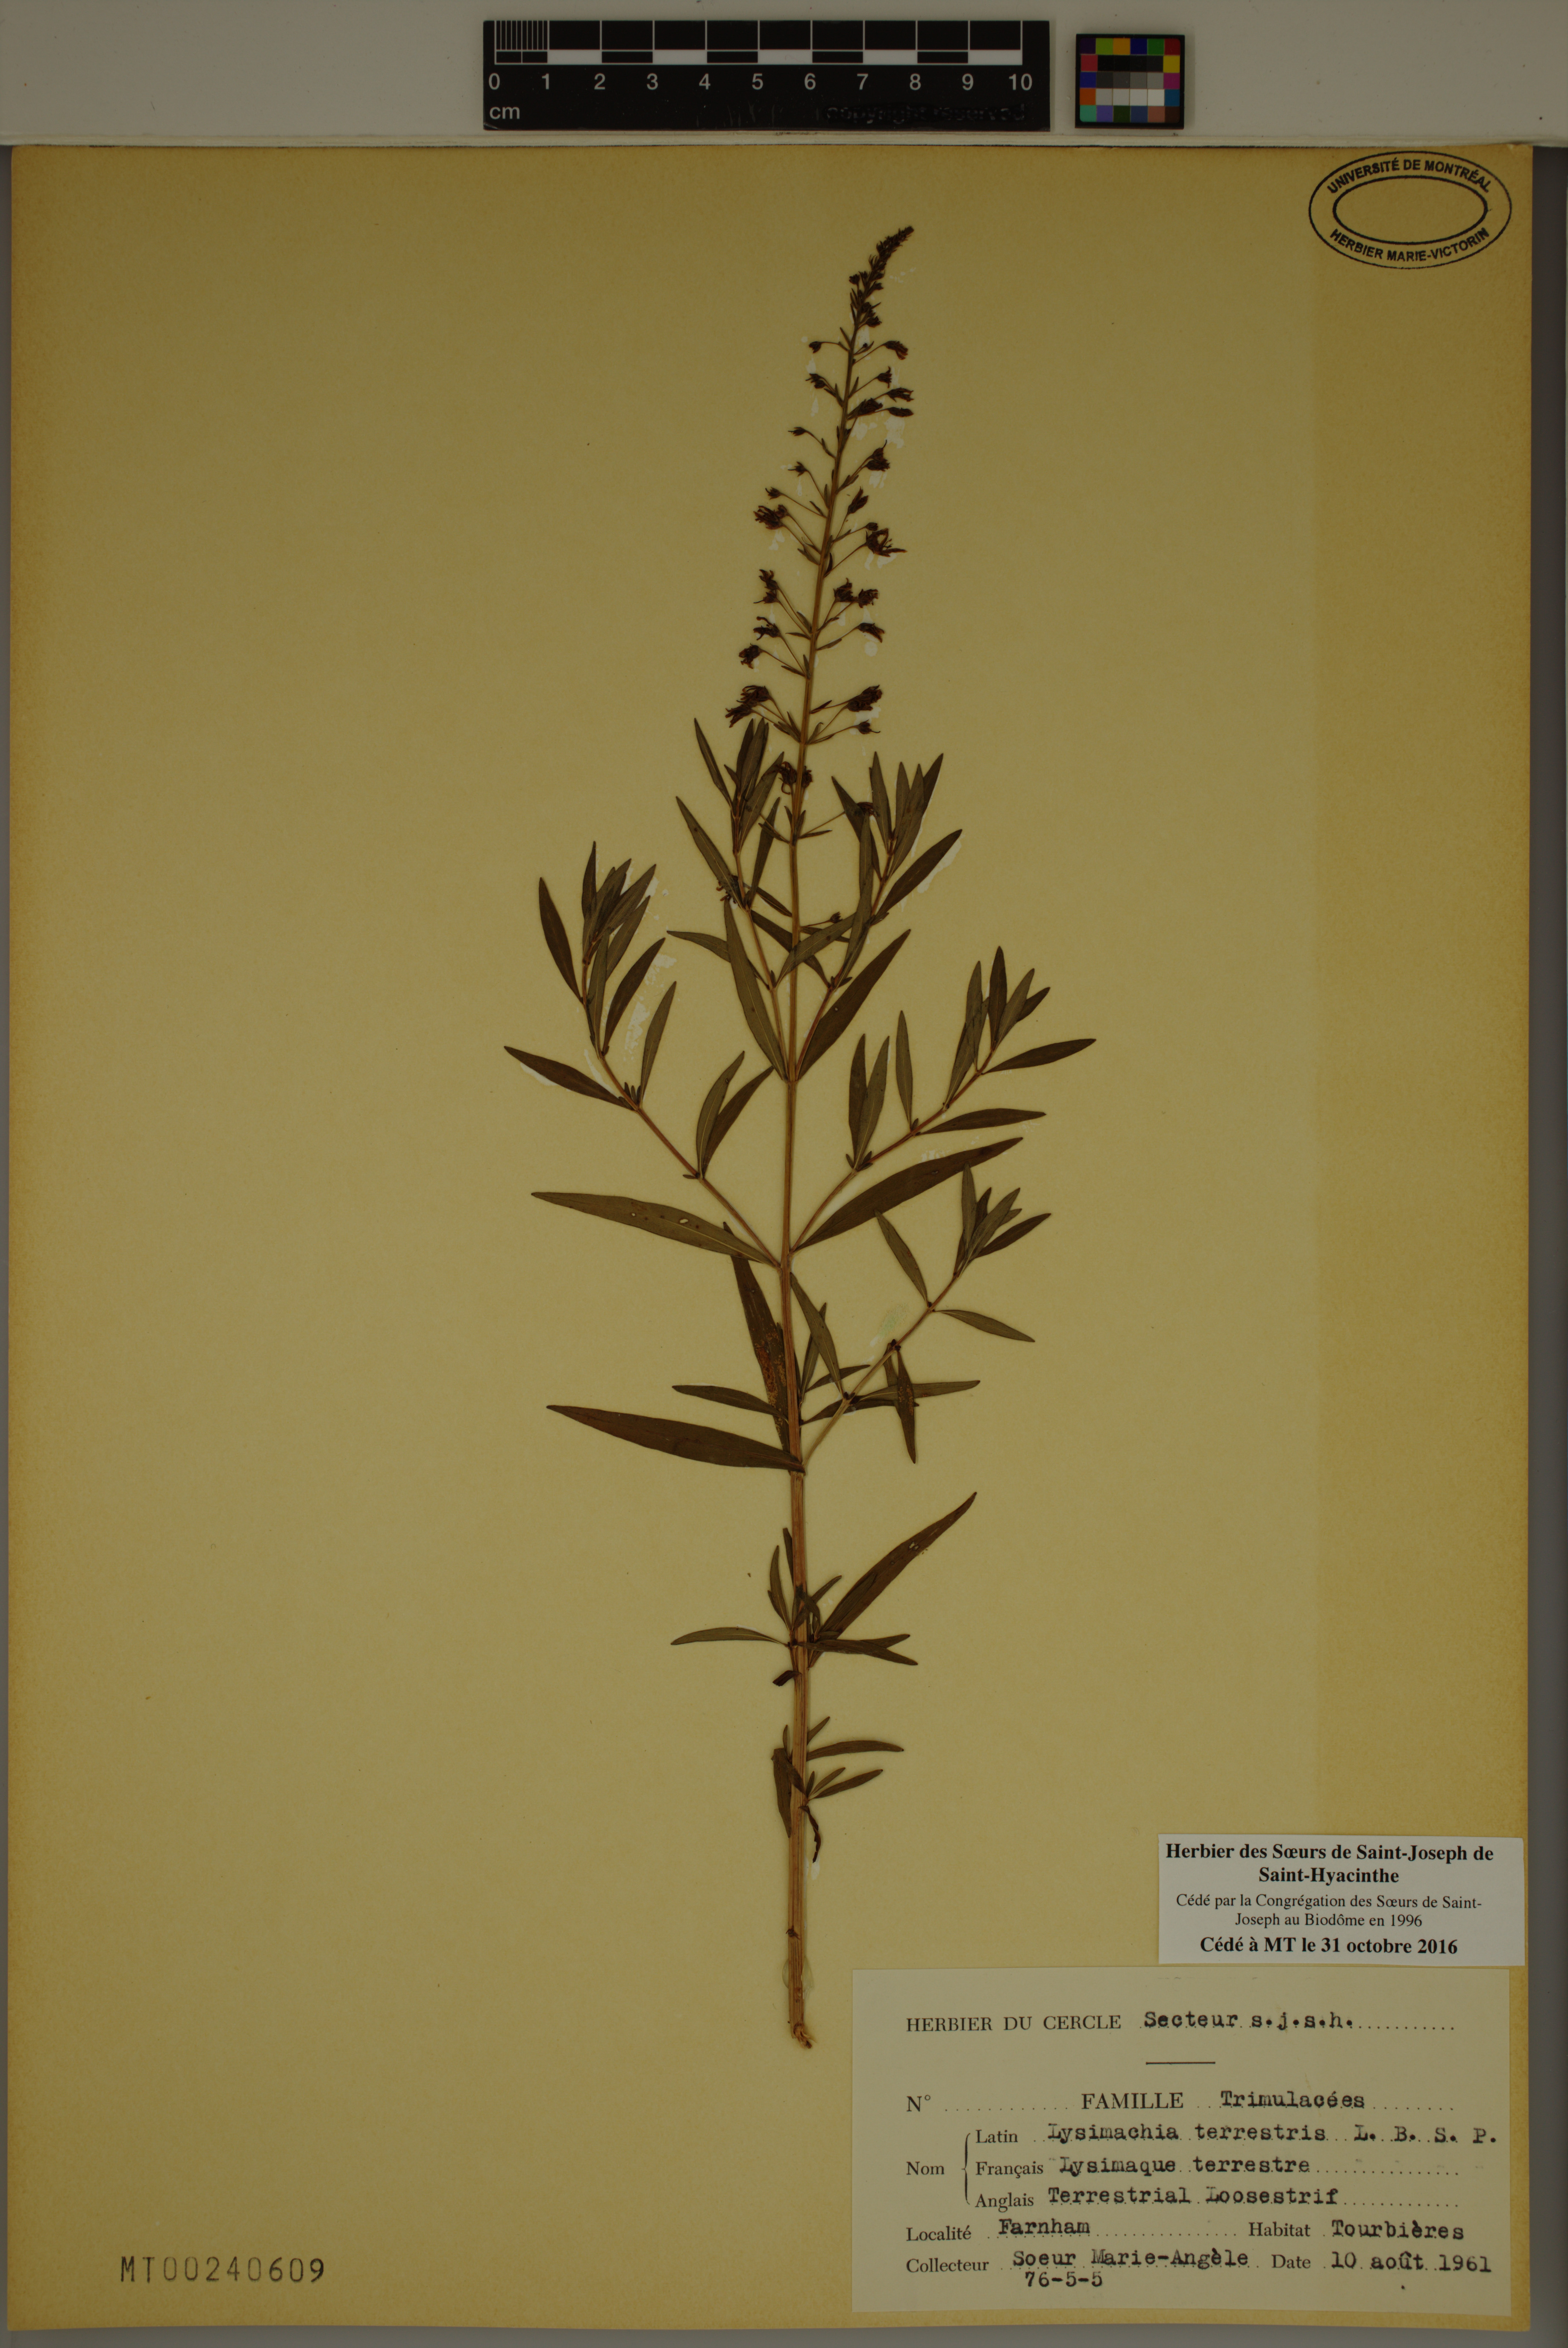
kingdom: Plantae
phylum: Tracheophyta
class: Magnoliopsida
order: Ericales
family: Primulaceae
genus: Lysimachia
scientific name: Lysimachia terrestris
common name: Lake loosestrife
